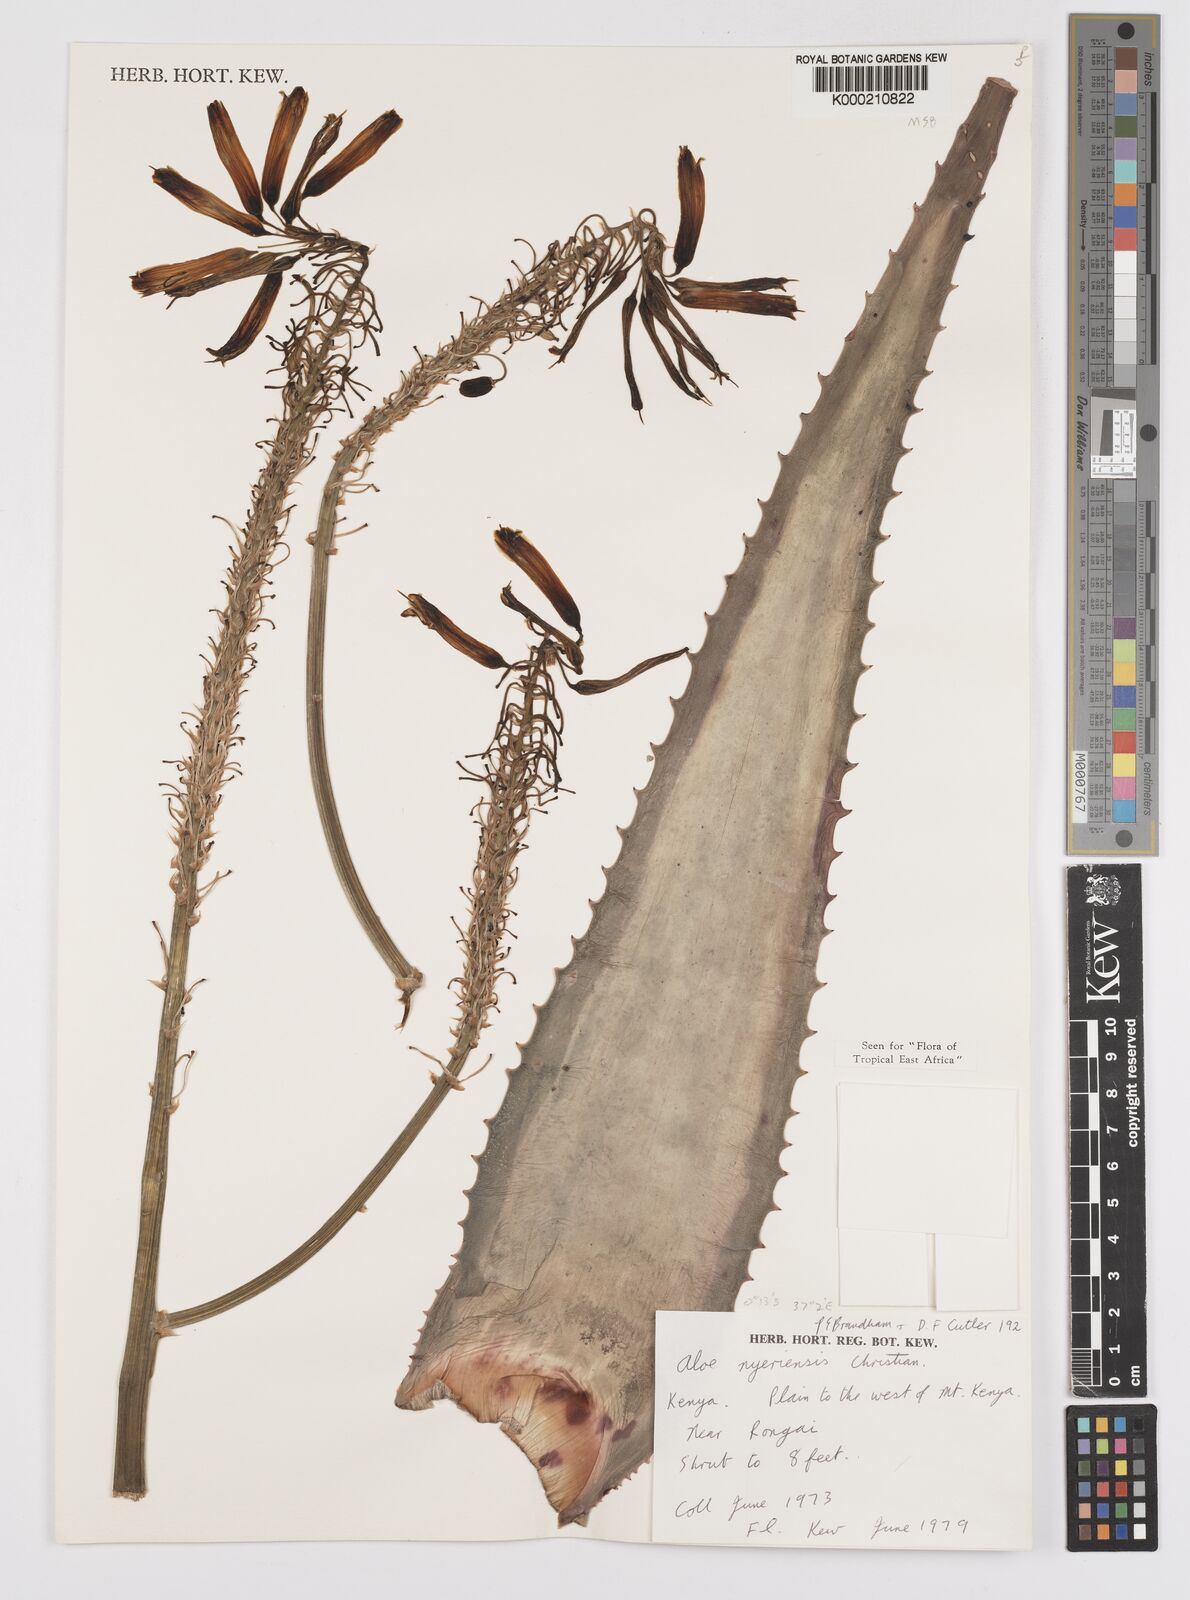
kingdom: Plantae
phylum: Tracheophyta
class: Liliopsida
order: Asparagales
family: Asphodelaceae
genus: Aloe
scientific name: Aloe nyeriensis
